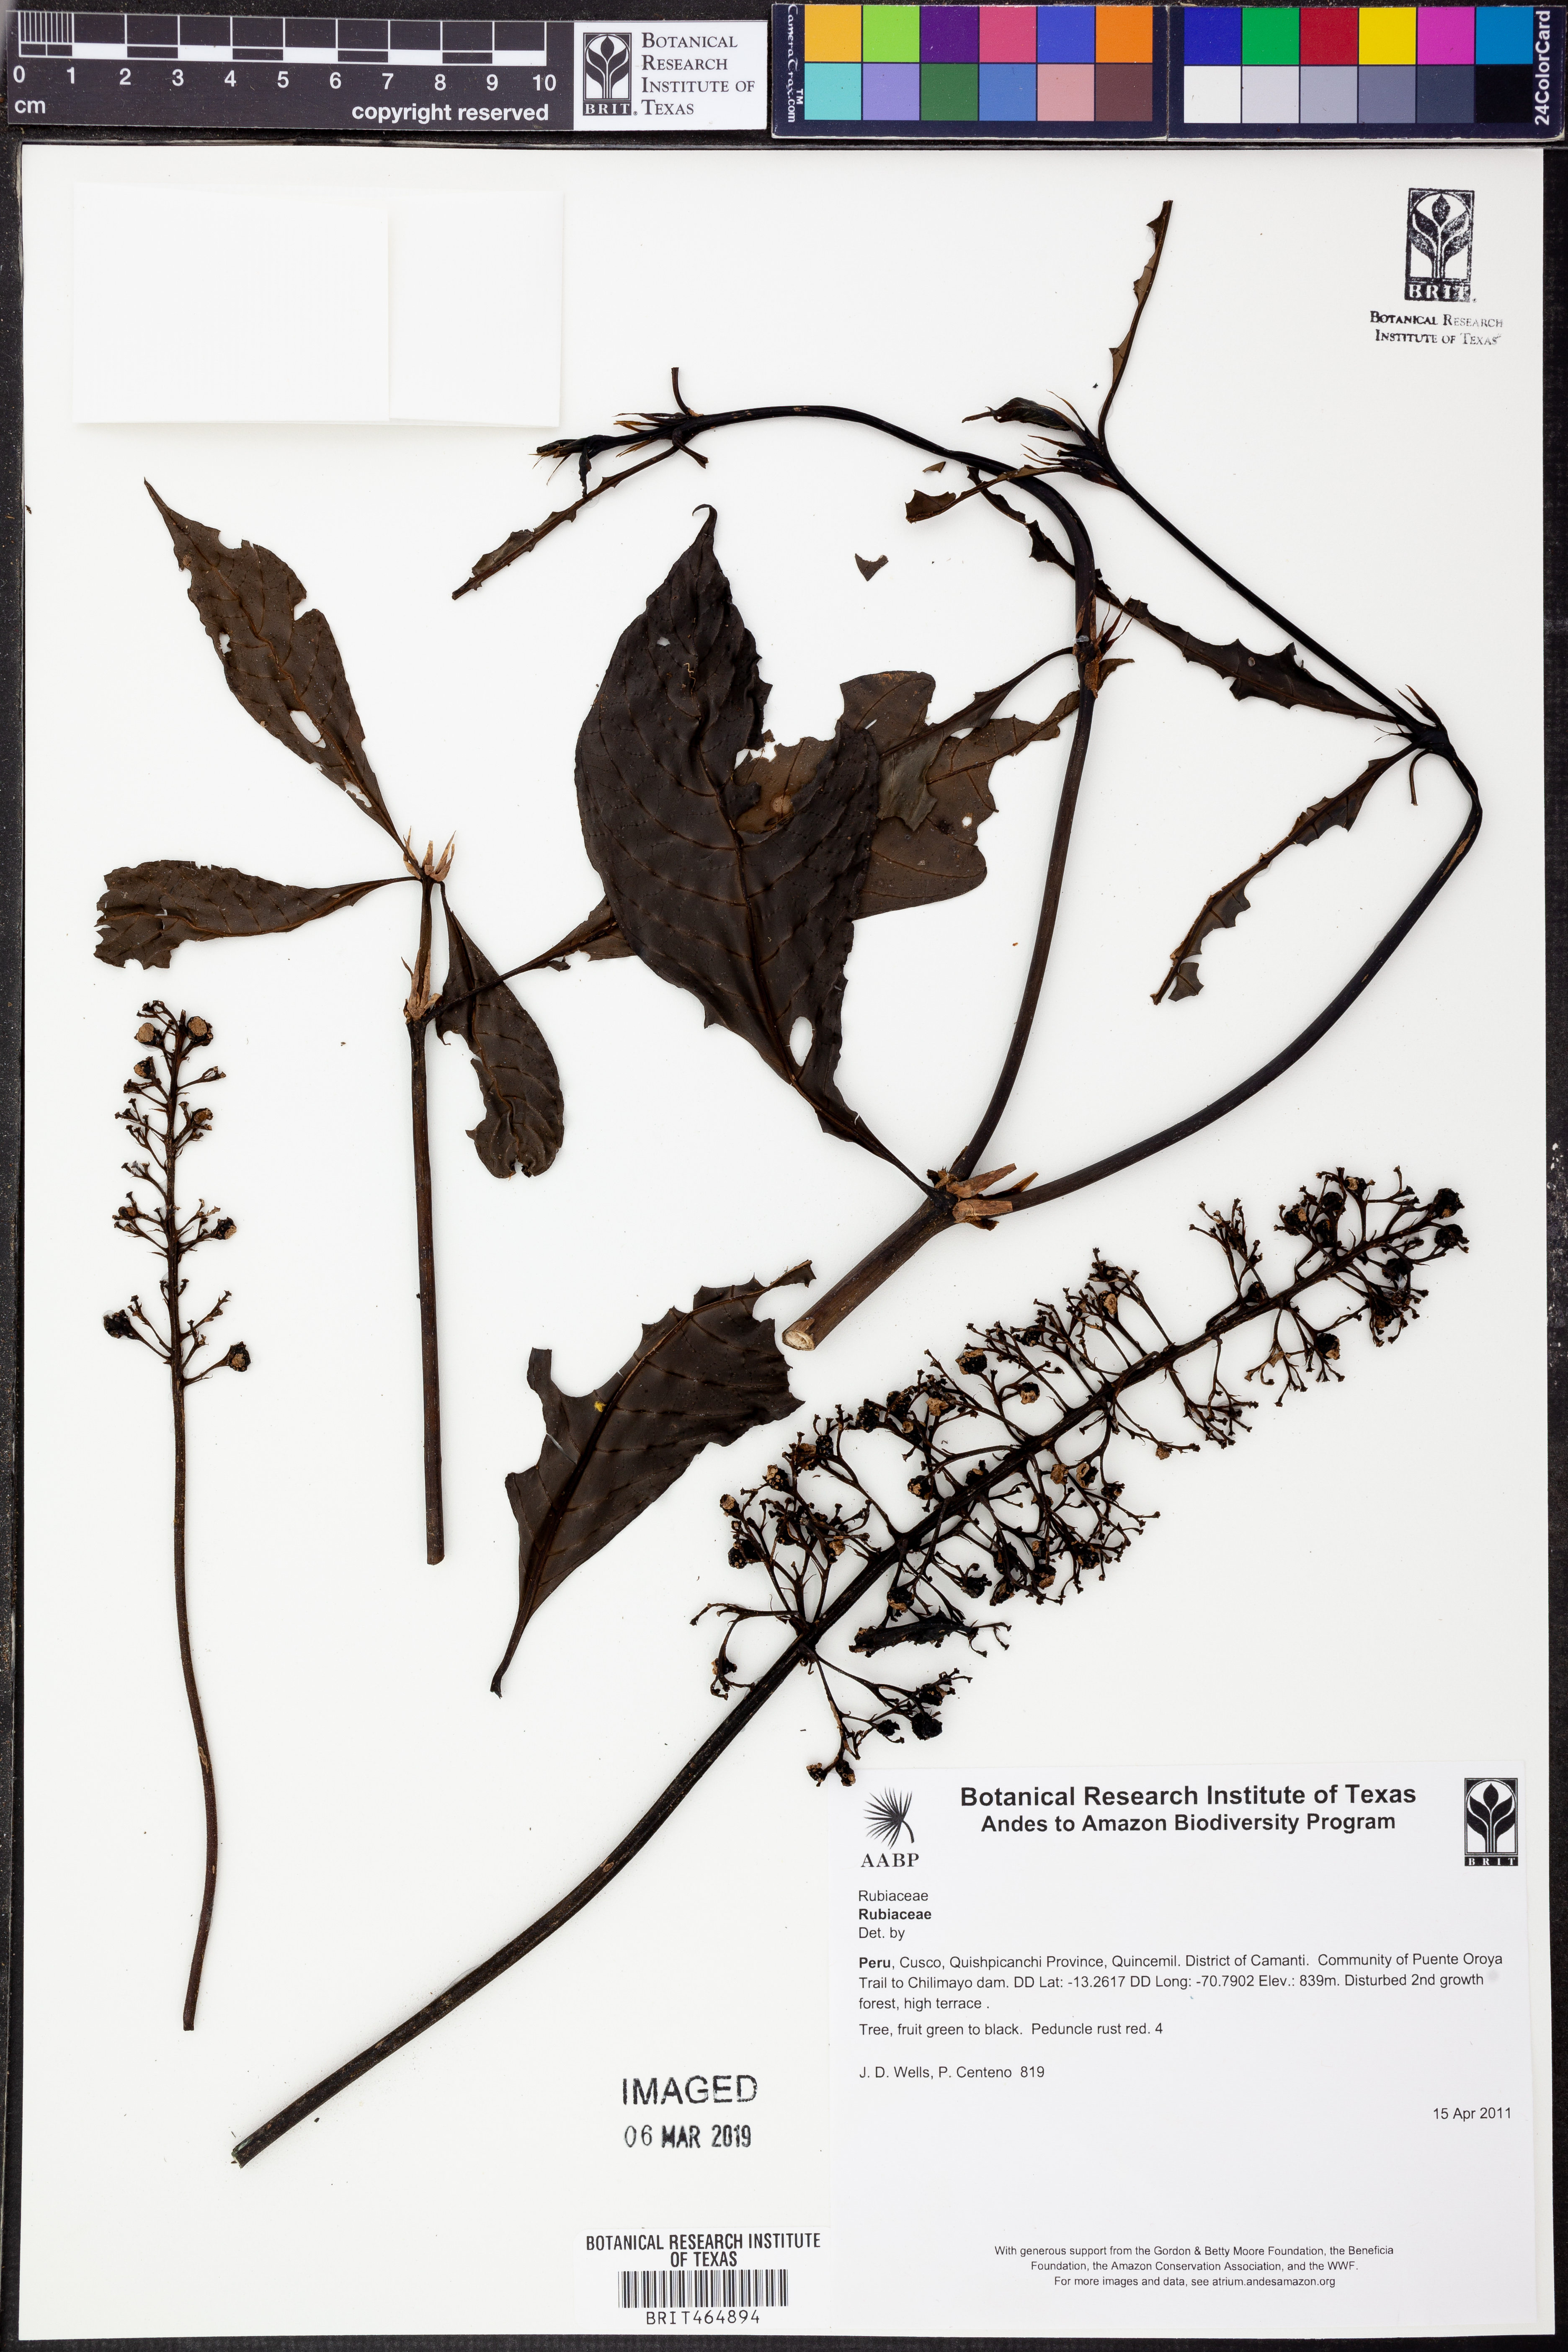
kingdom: Plantae
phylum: Tracheophyta
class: Magnoliopsida
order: Gentianales
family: Rubiaceae
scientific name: Rubiaceae
